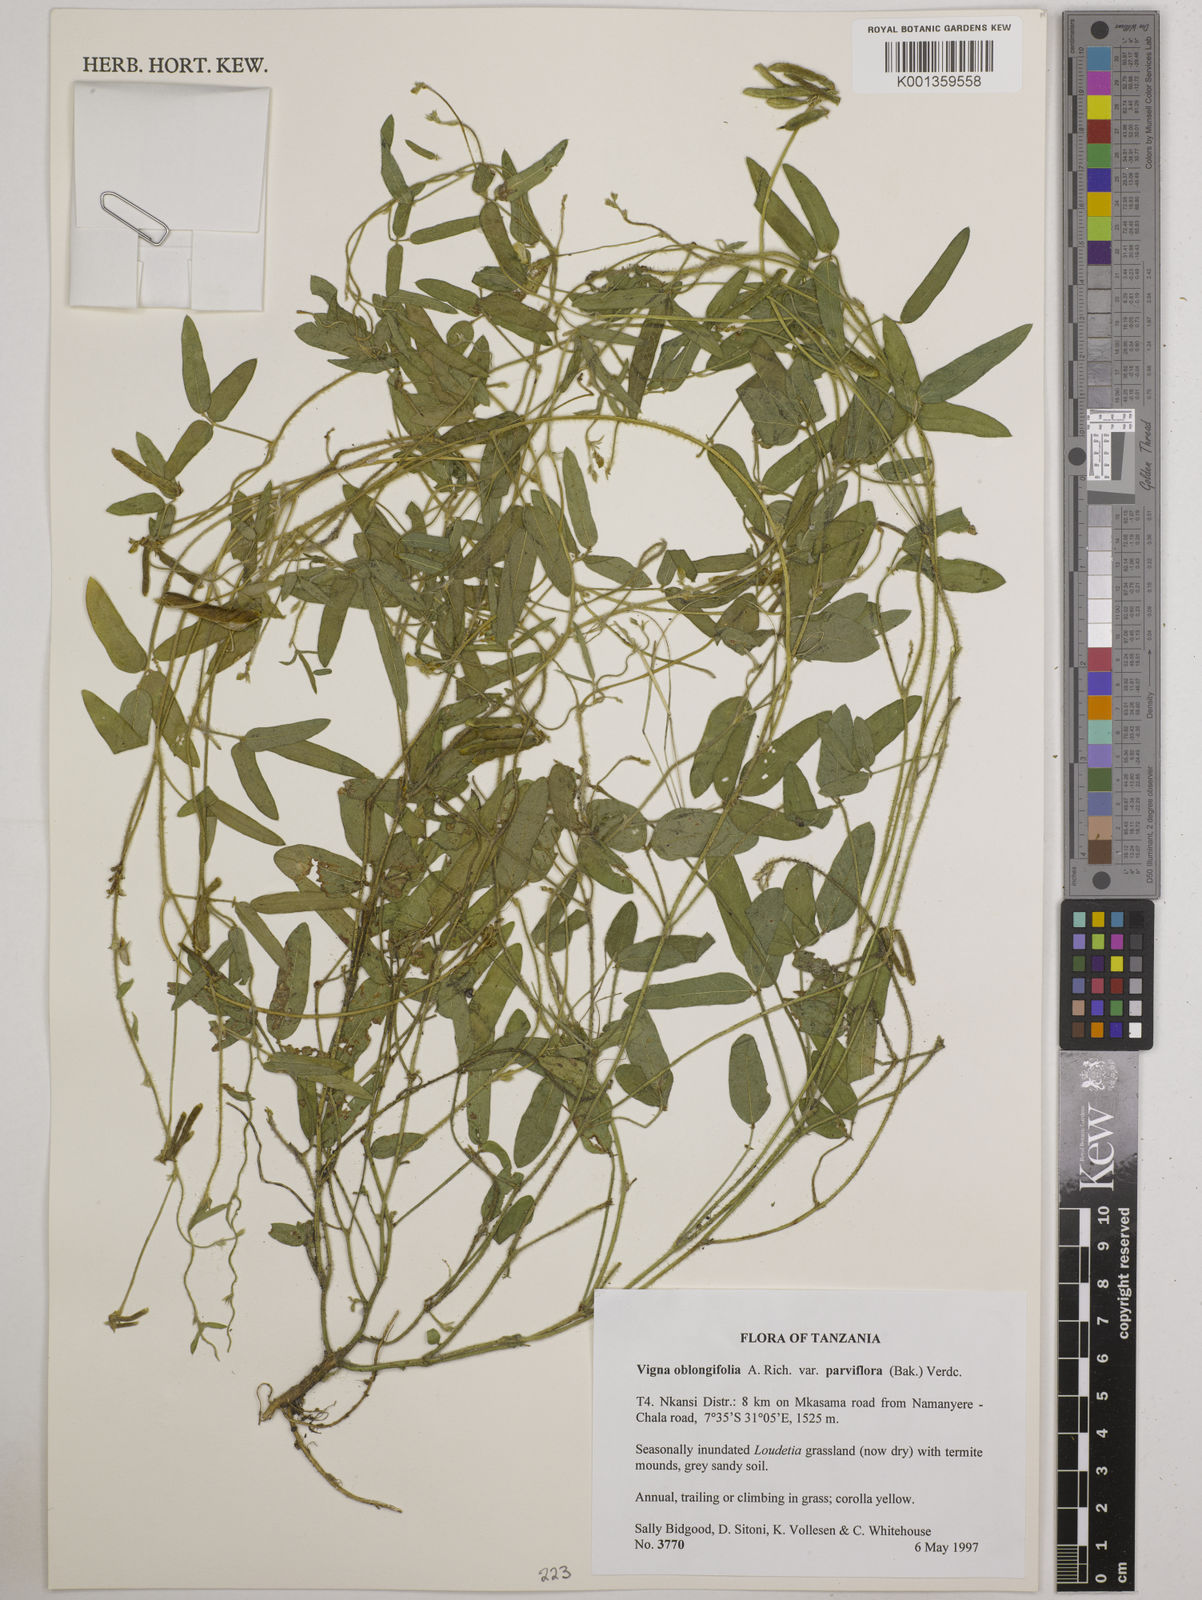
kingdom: Plantae
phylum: Tracheophyta
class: Magnoliopsida
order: Fabales
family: Fabaceae
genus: Vigna
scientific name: Vigna
